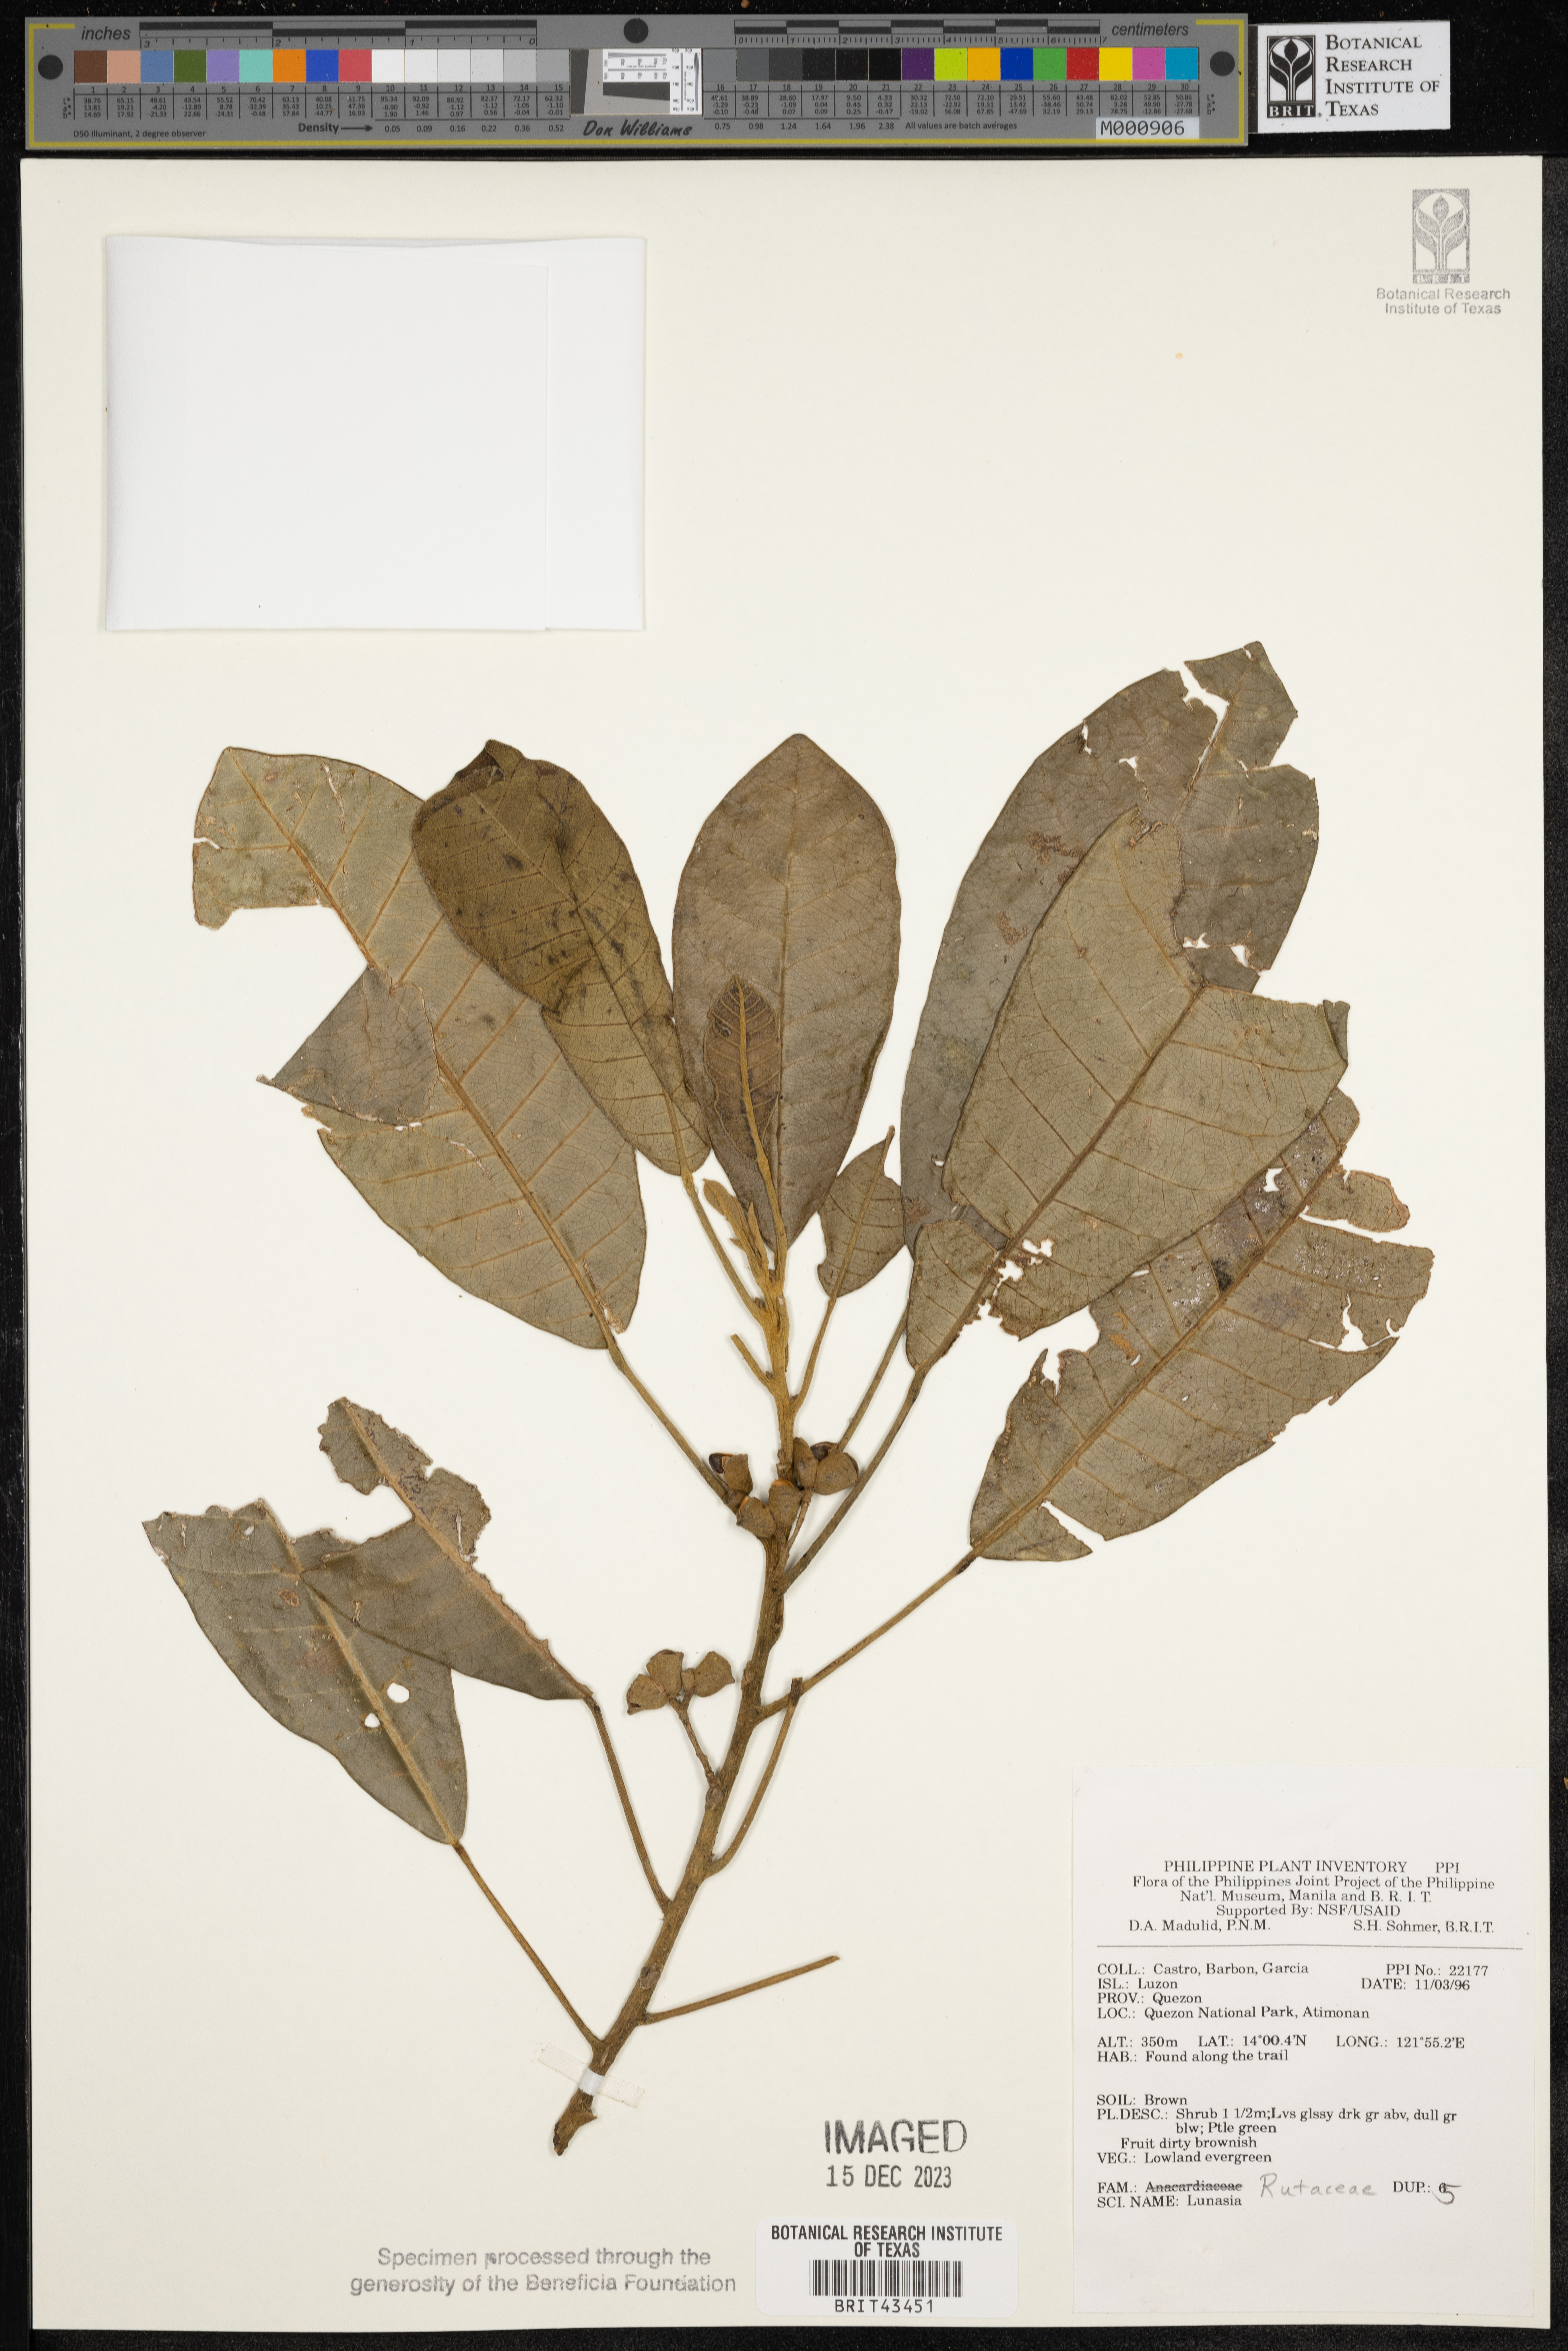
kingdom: Plantae
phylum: Tracheophyta
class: Magnoliopsida
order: Sapindales
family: Rutaceae
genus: Lunasia
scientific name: Lunasia
